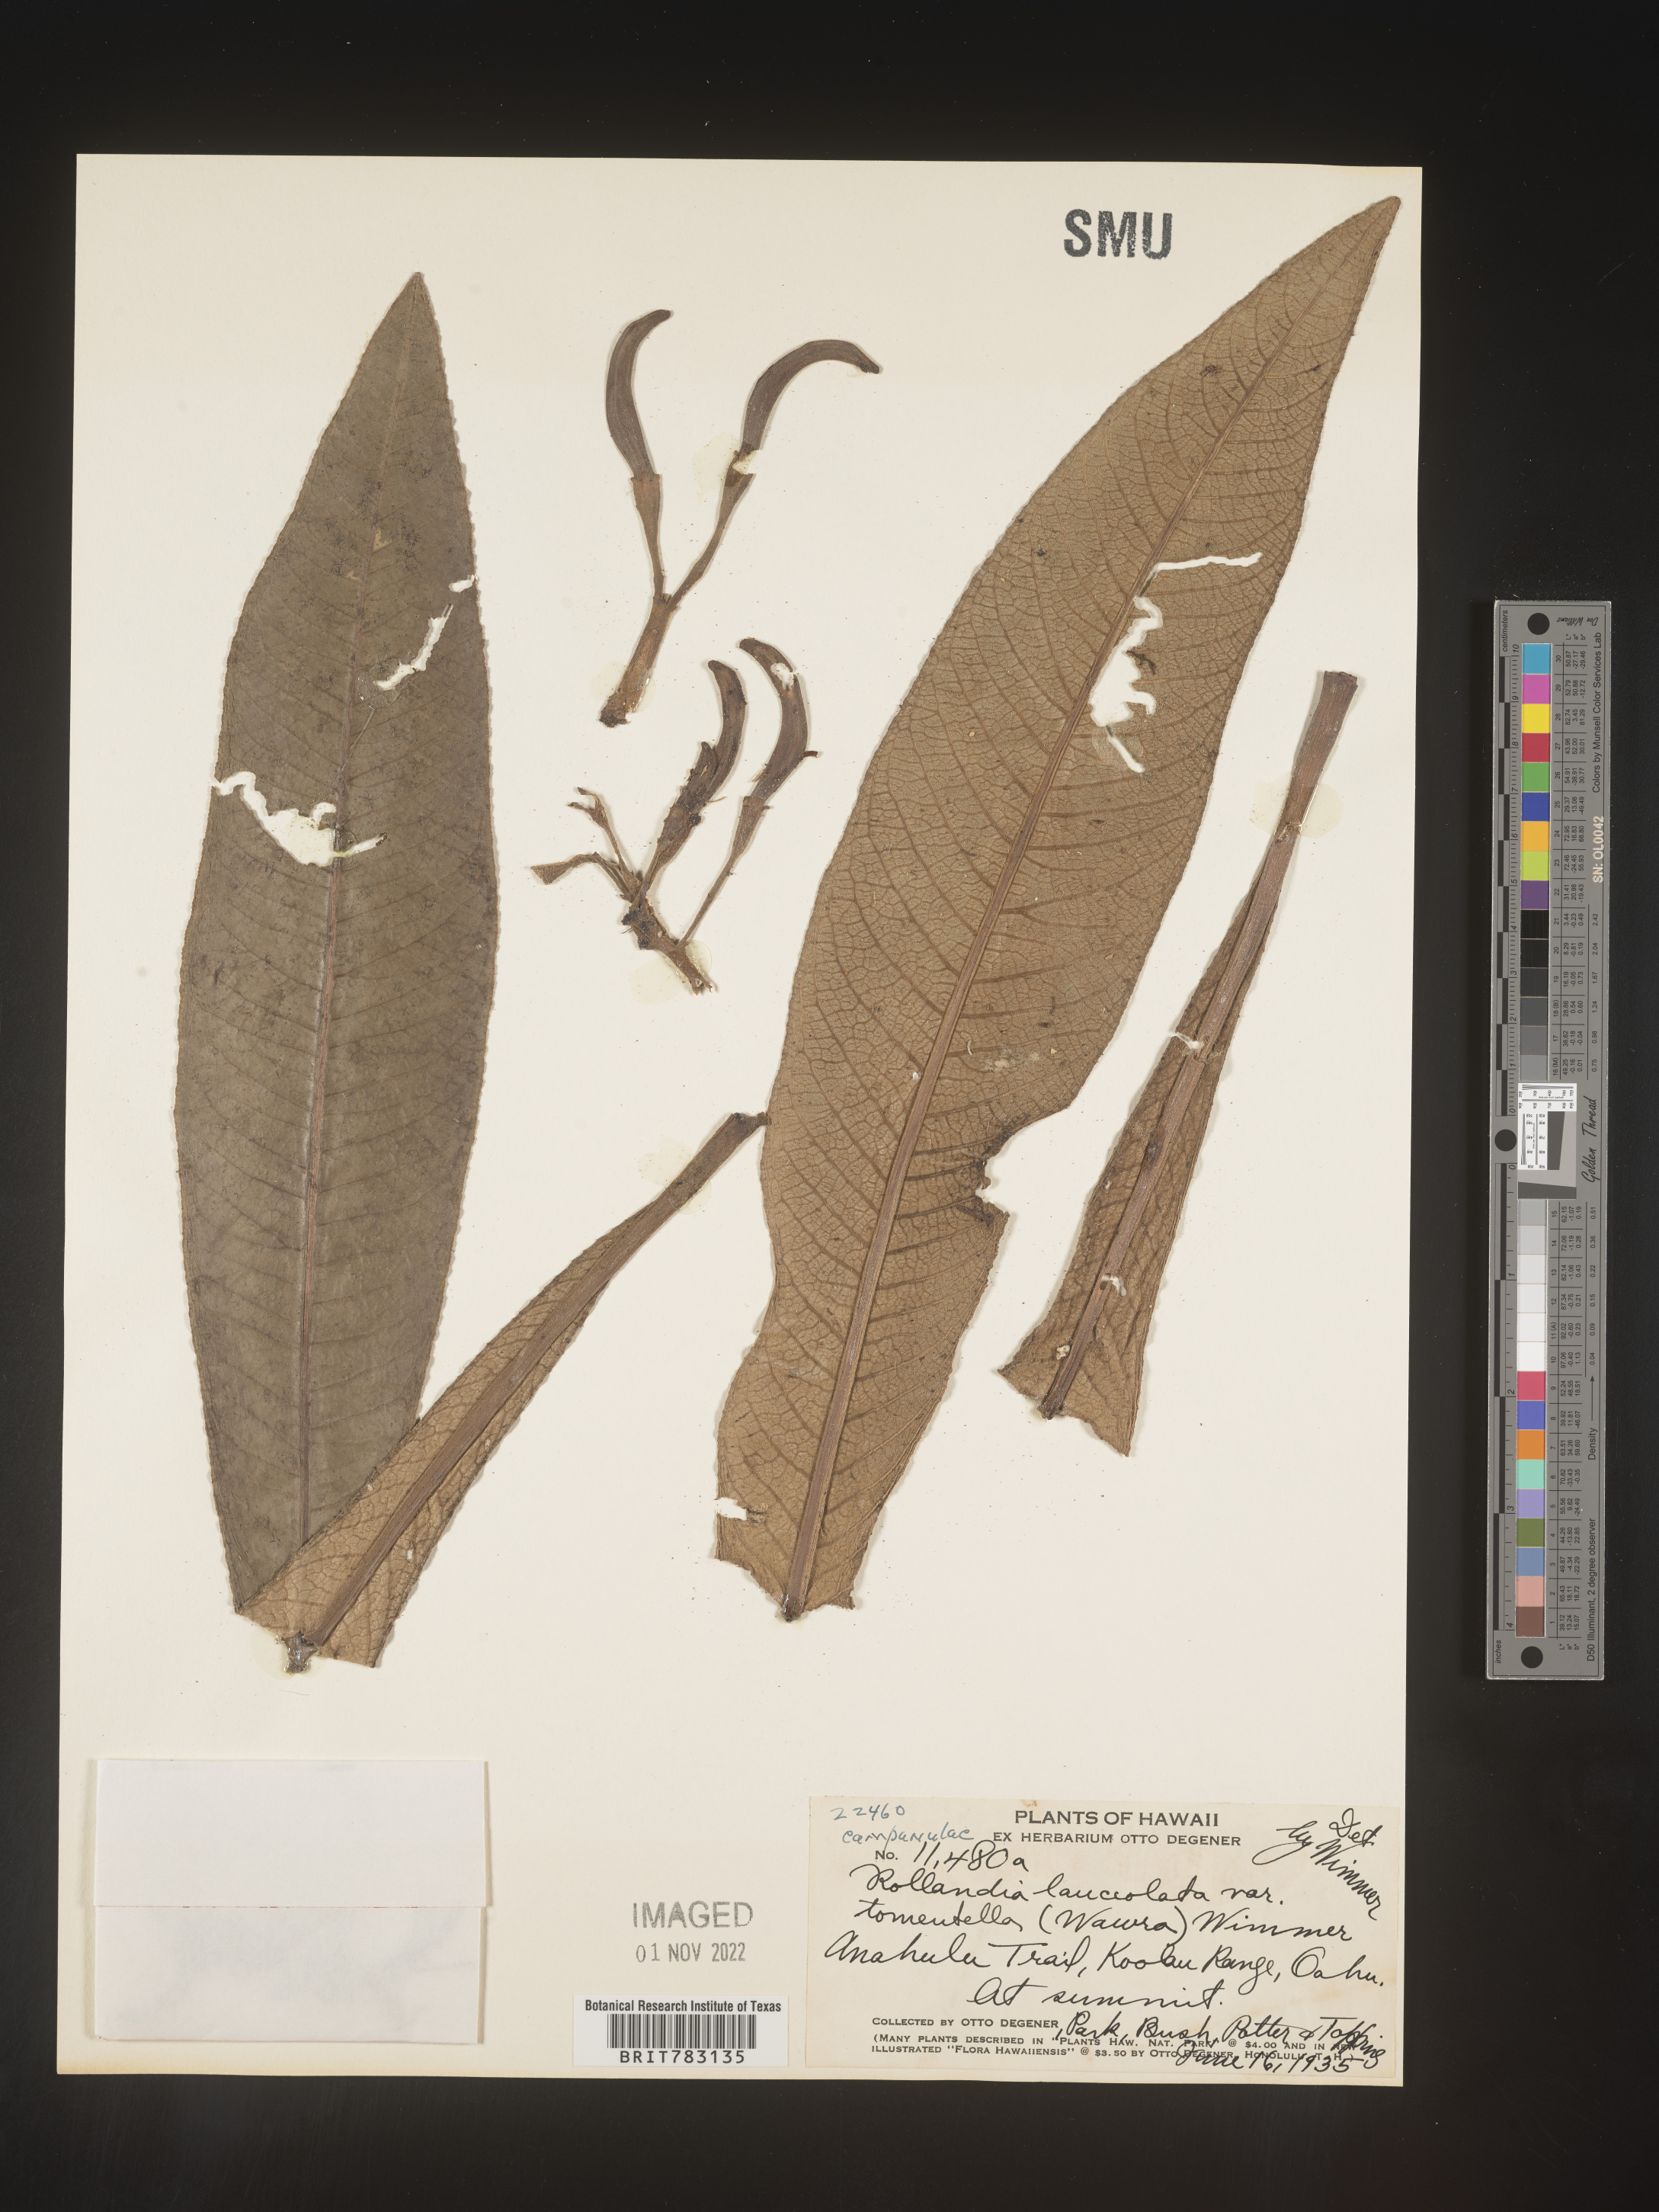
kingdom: Plantae
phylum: Tracheophyta
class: Magnoliopsida
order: Asterales
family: Campanulaceae
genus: Cyanea
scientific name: Cyanea calycina
